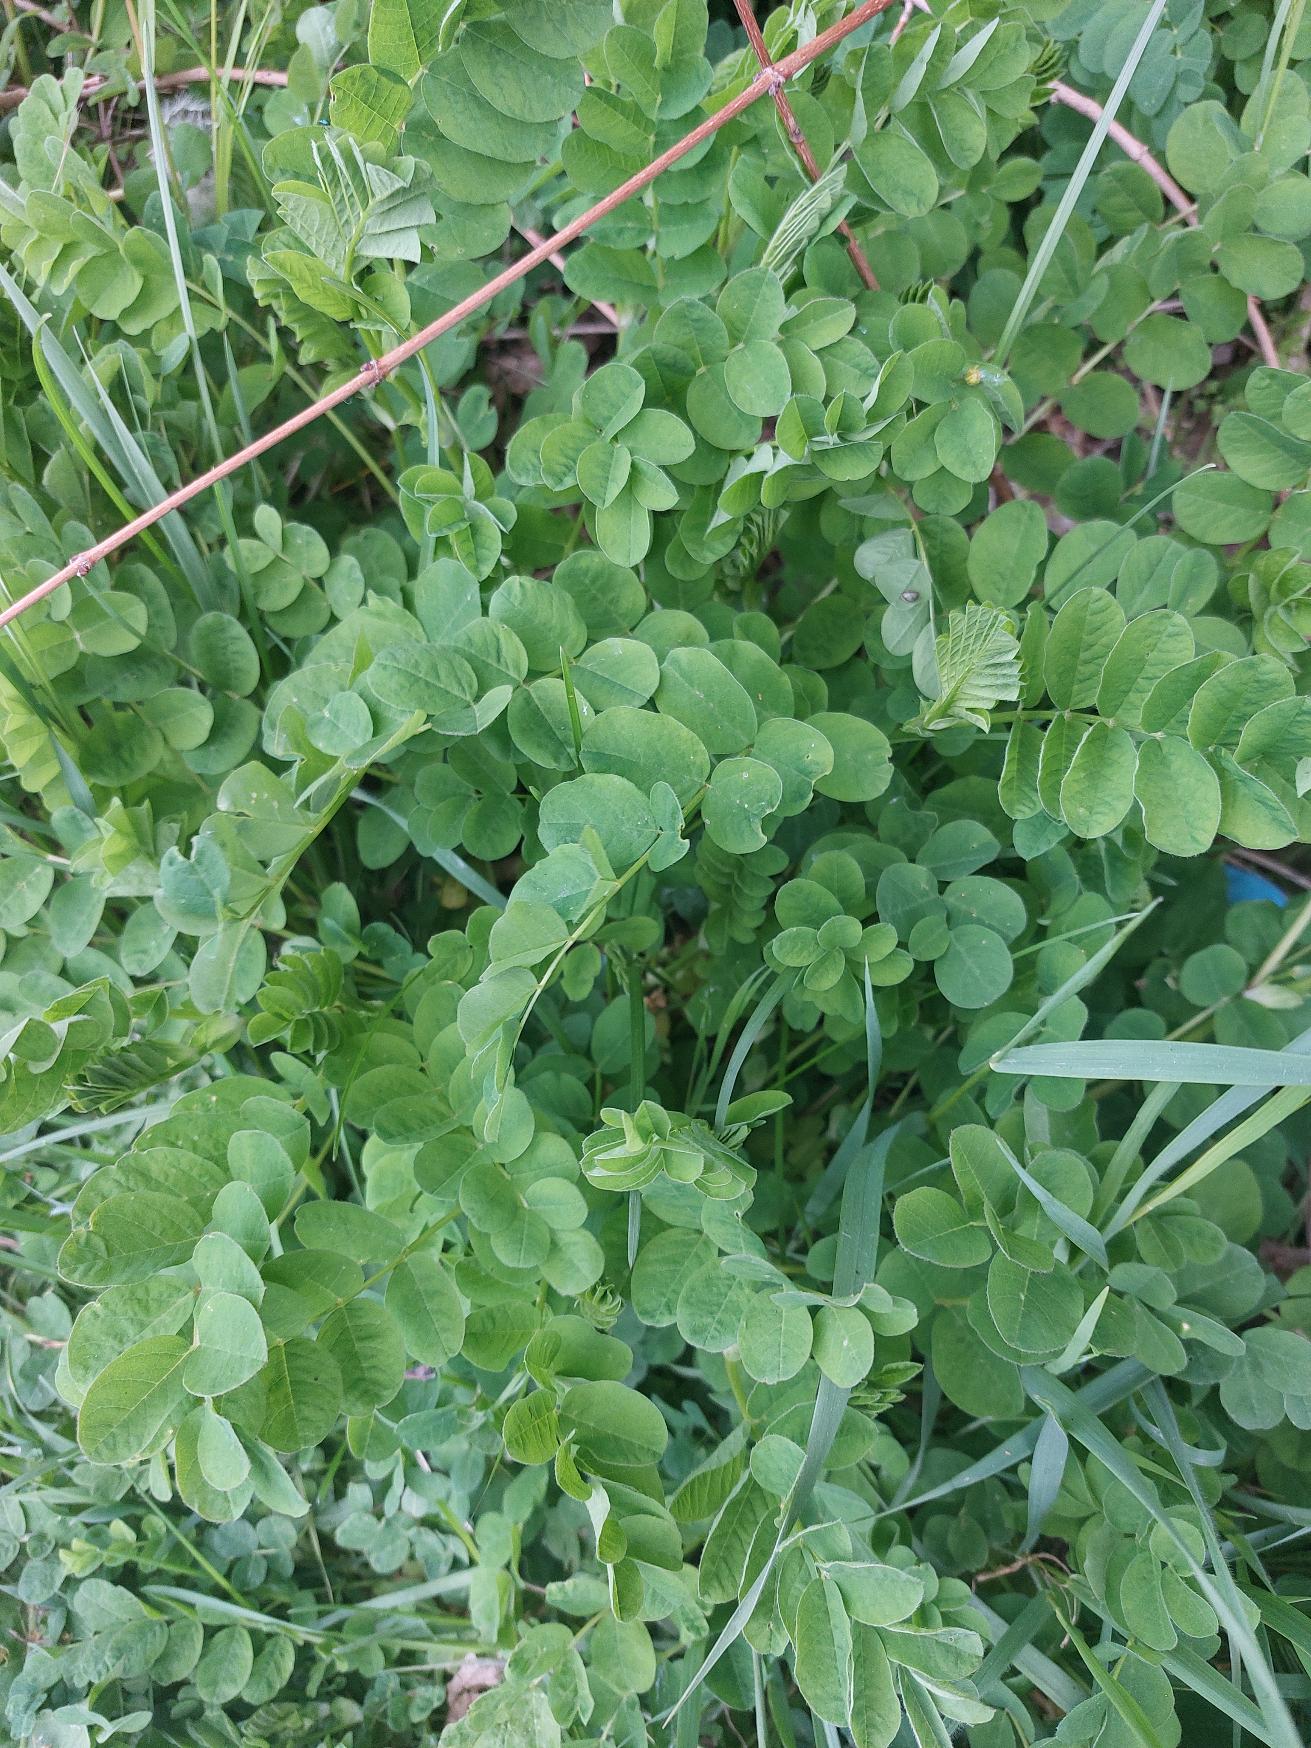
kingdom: Plantae
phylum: Tracheophyta
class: Magnoliopsida
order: Fabales
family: Fabaceae
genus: Astragalus
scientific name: Astragalus glycyphyllos
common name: Sød astragel
